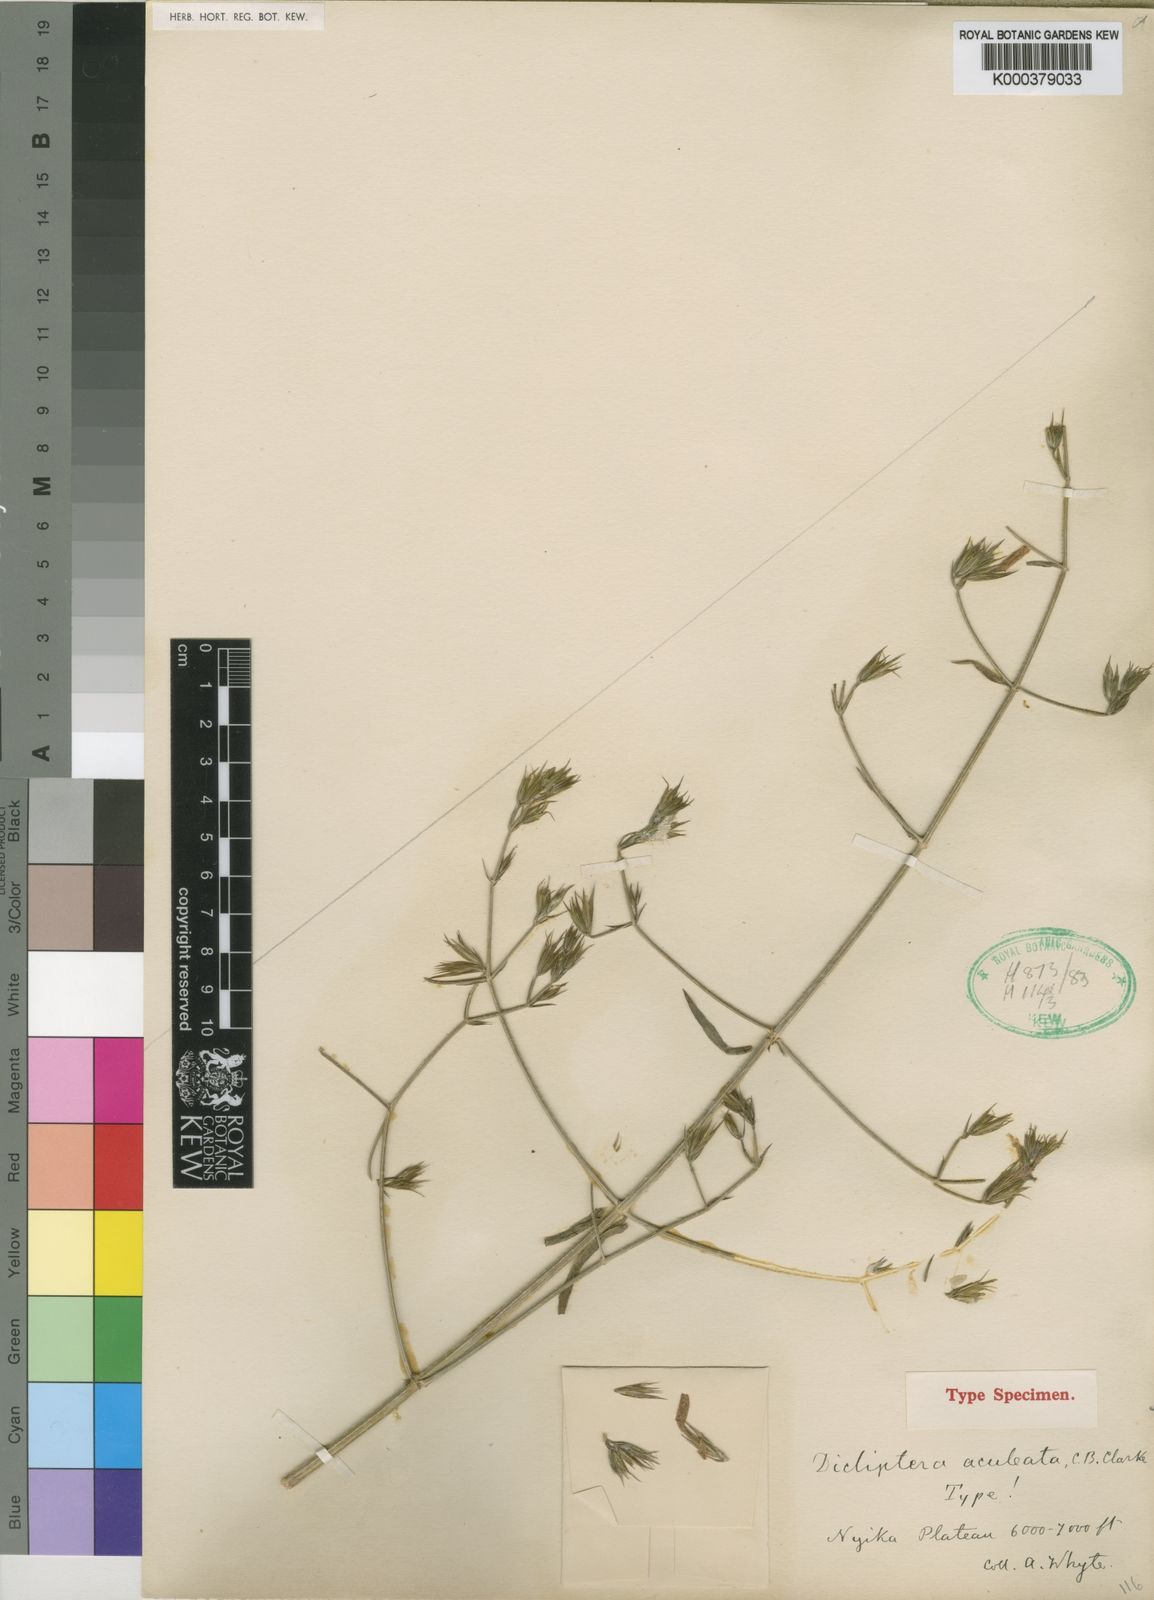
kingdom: Plantae
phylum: Tracheophyta
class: Magnoliopsida
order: Lamiales
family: Acanthaceae
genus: Dicliptera
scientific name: Dicliptera hensii
